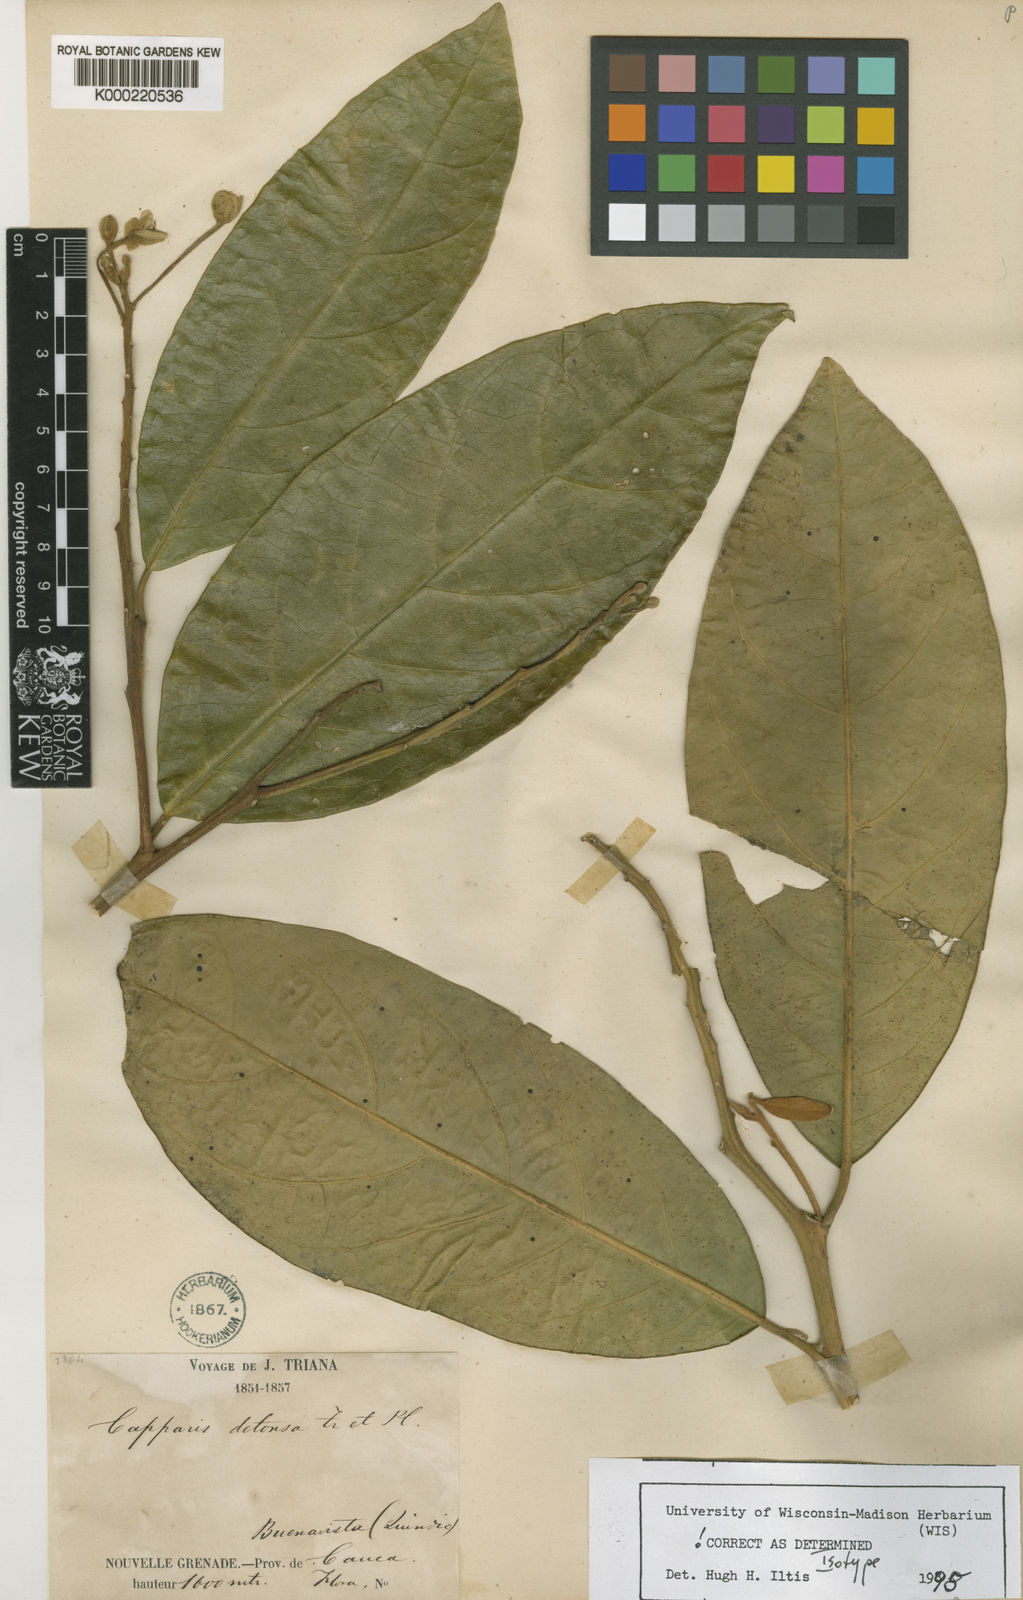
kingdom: Plantae
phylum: Tracheophyta
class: Magnoliopsida
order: Brassicales
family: Capparaceae
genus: Preslianthus
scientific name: Preslianthus detonsus
